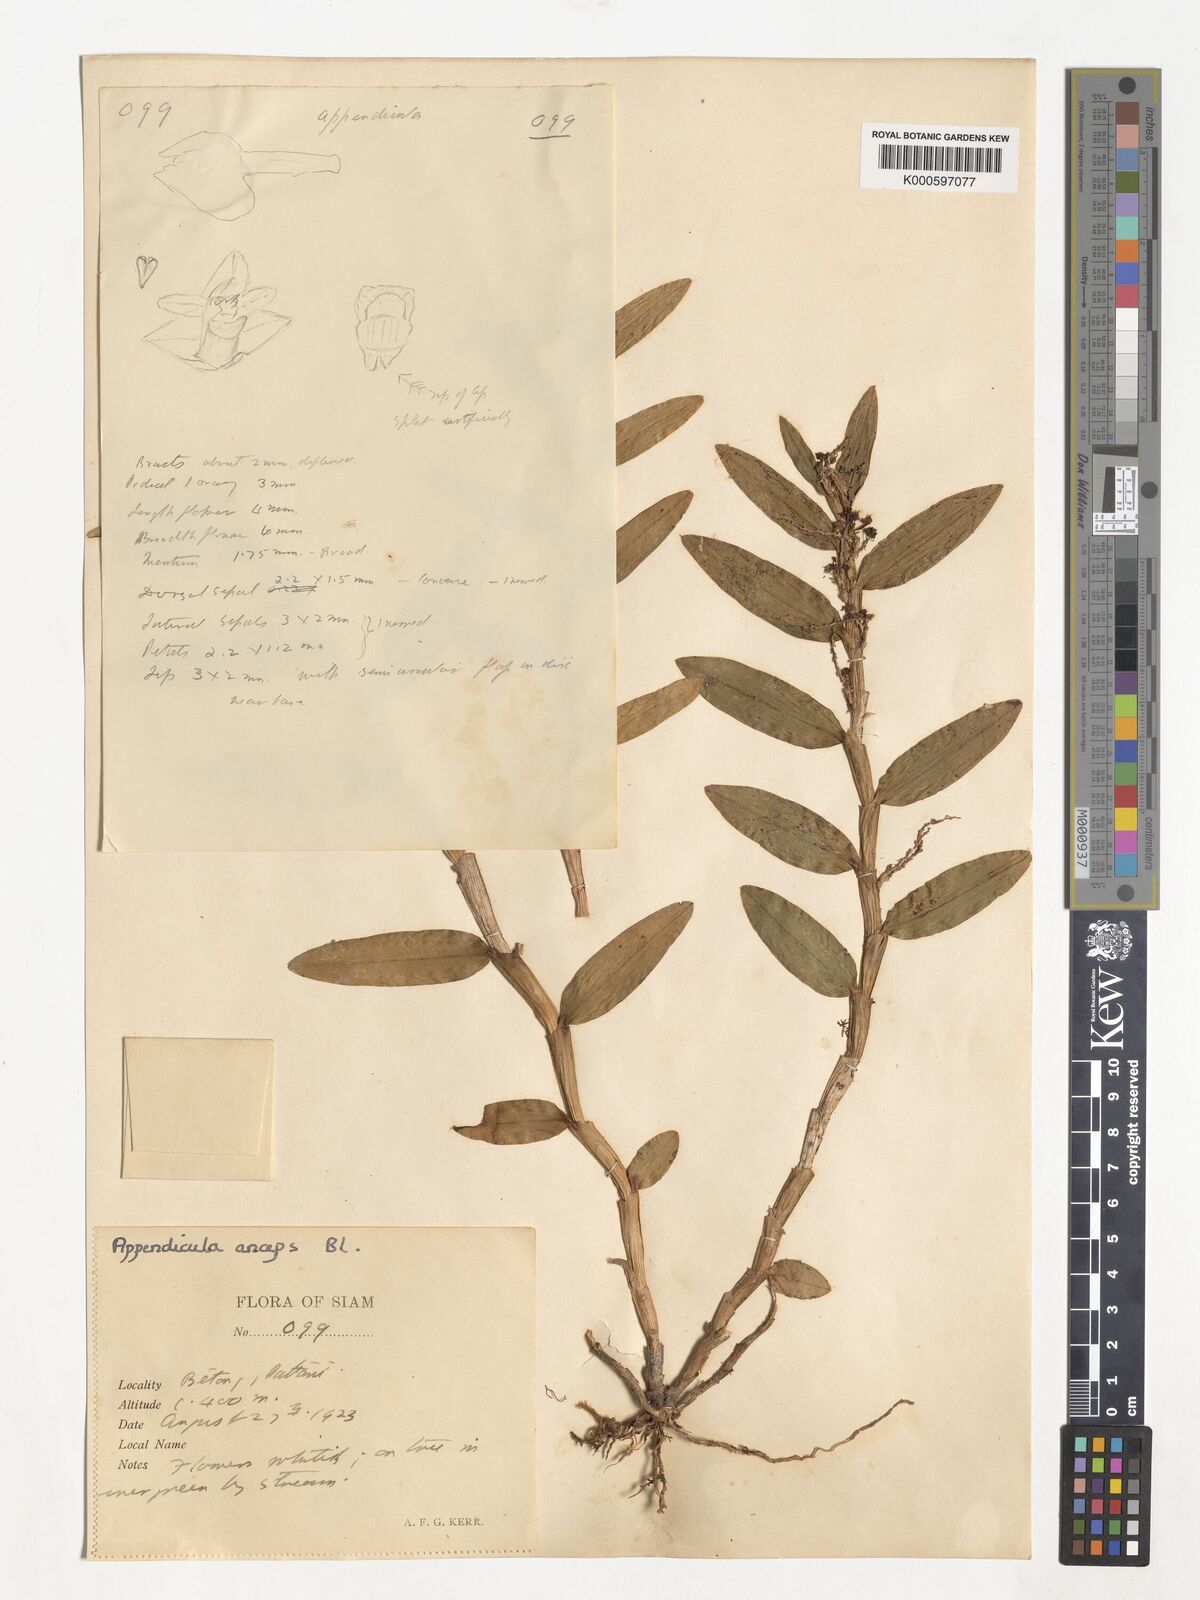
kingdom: Plantae
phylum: Tracheophyta
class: Liliopsida
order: Asparagales
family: Orchidaceae
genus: Appendicula
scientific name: Appendicula anceps
